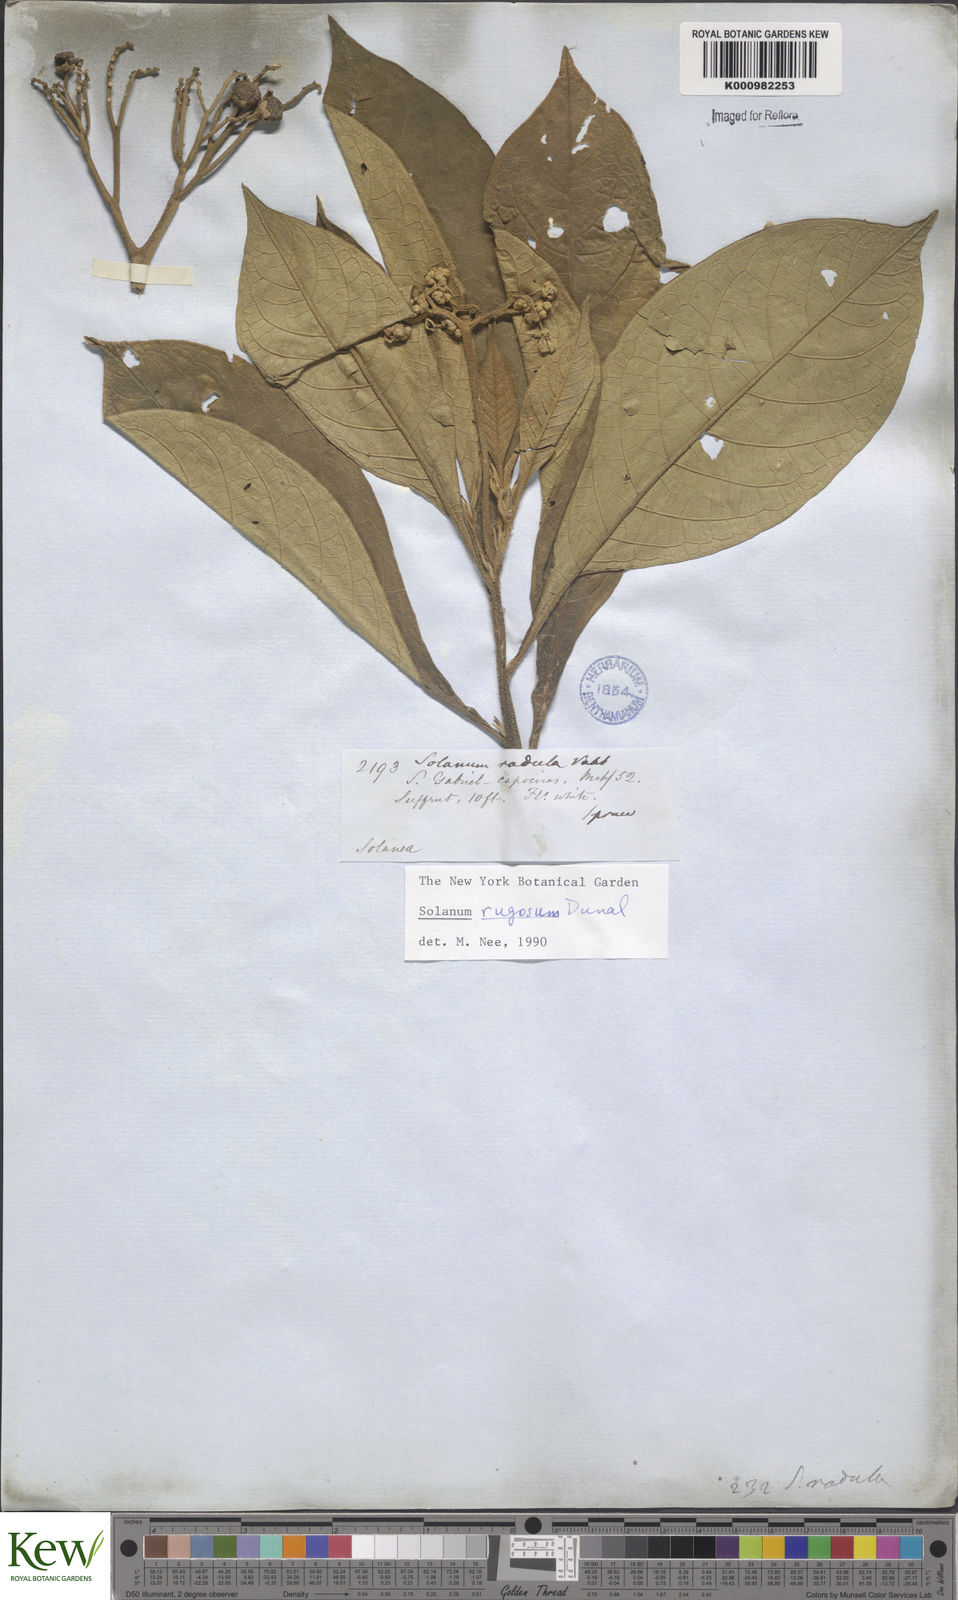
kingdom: Plantae
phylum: Tracheophyta
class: Magnoliopsida
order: Solanales
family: Solanaceae
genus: Solanum
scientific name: Solanum rugosum
